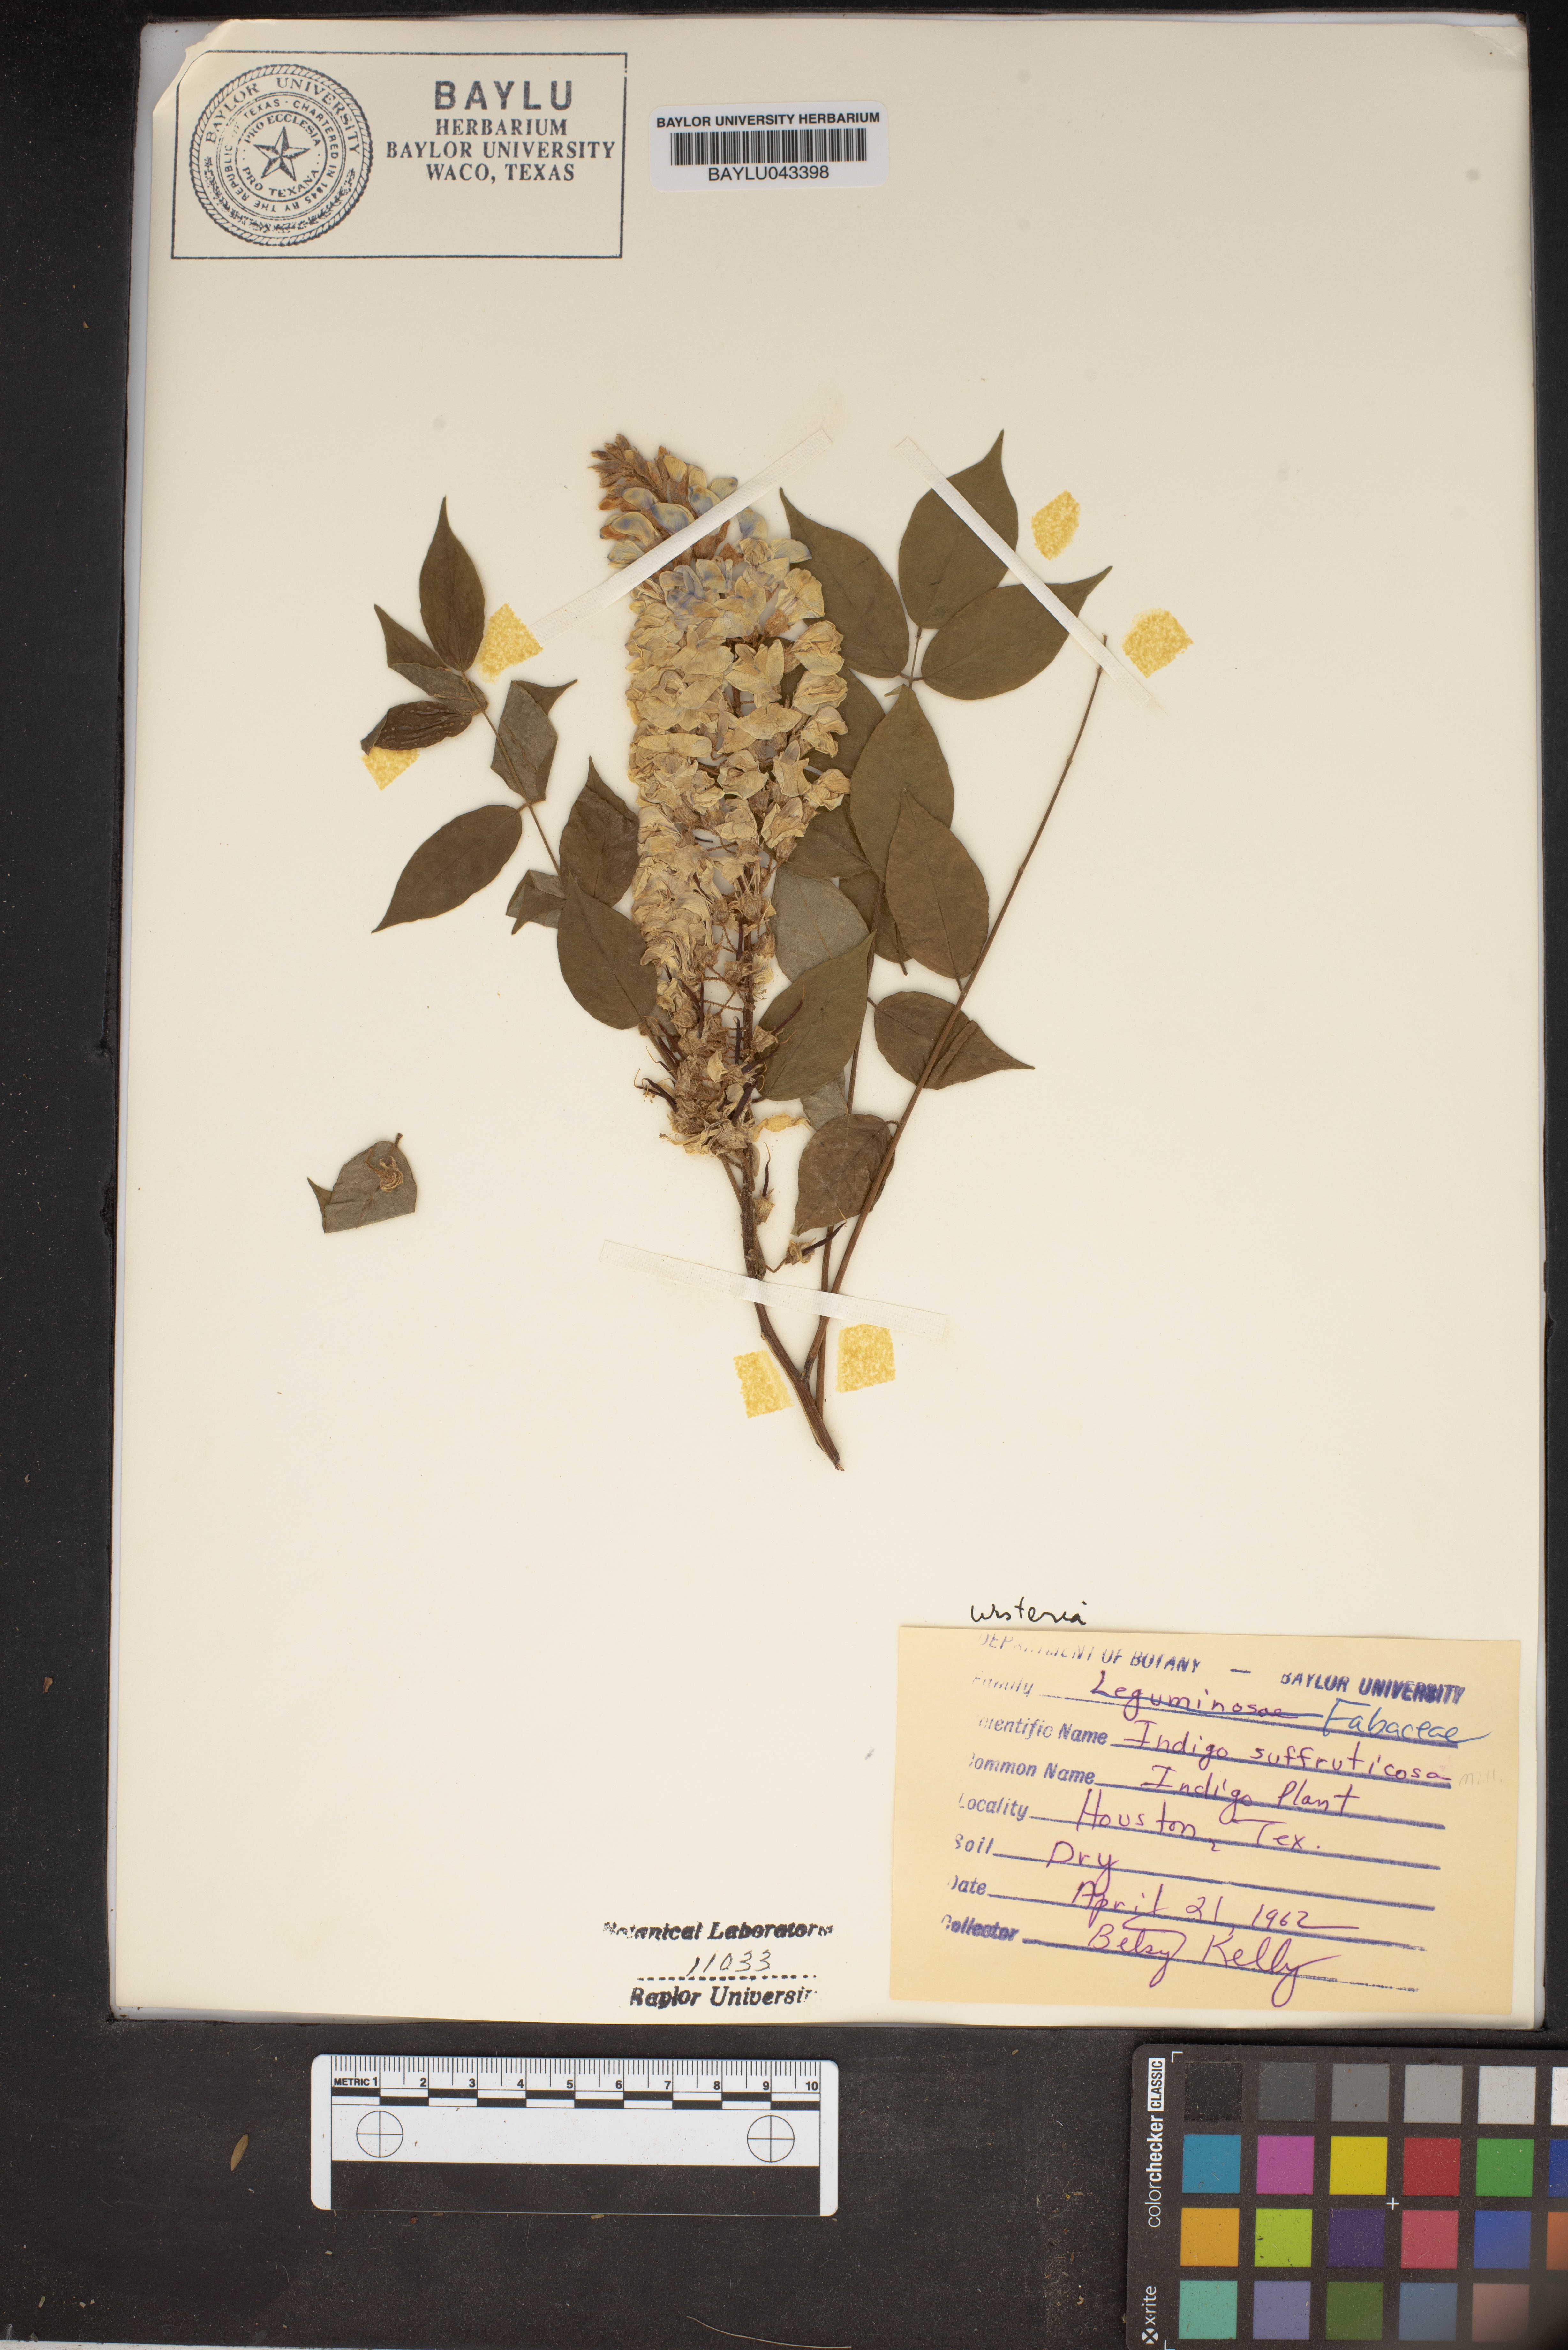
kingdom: Plantae
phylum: Tracheophyta
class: Magnoliopsida
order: Fabales
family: Fabaceae
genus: Indigofera
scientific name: Indigofera suffruticosa
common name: Anil de pasto
